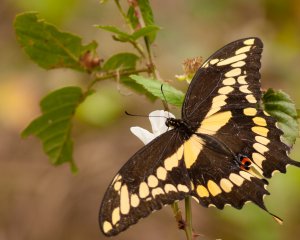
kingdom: Animalia
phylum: Arthropoda
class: Insecta
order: Lepidoptera
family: Papilionidae
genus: Papilio
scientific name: Papilio cresphontes
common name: Eastern Giant Swallowtail
